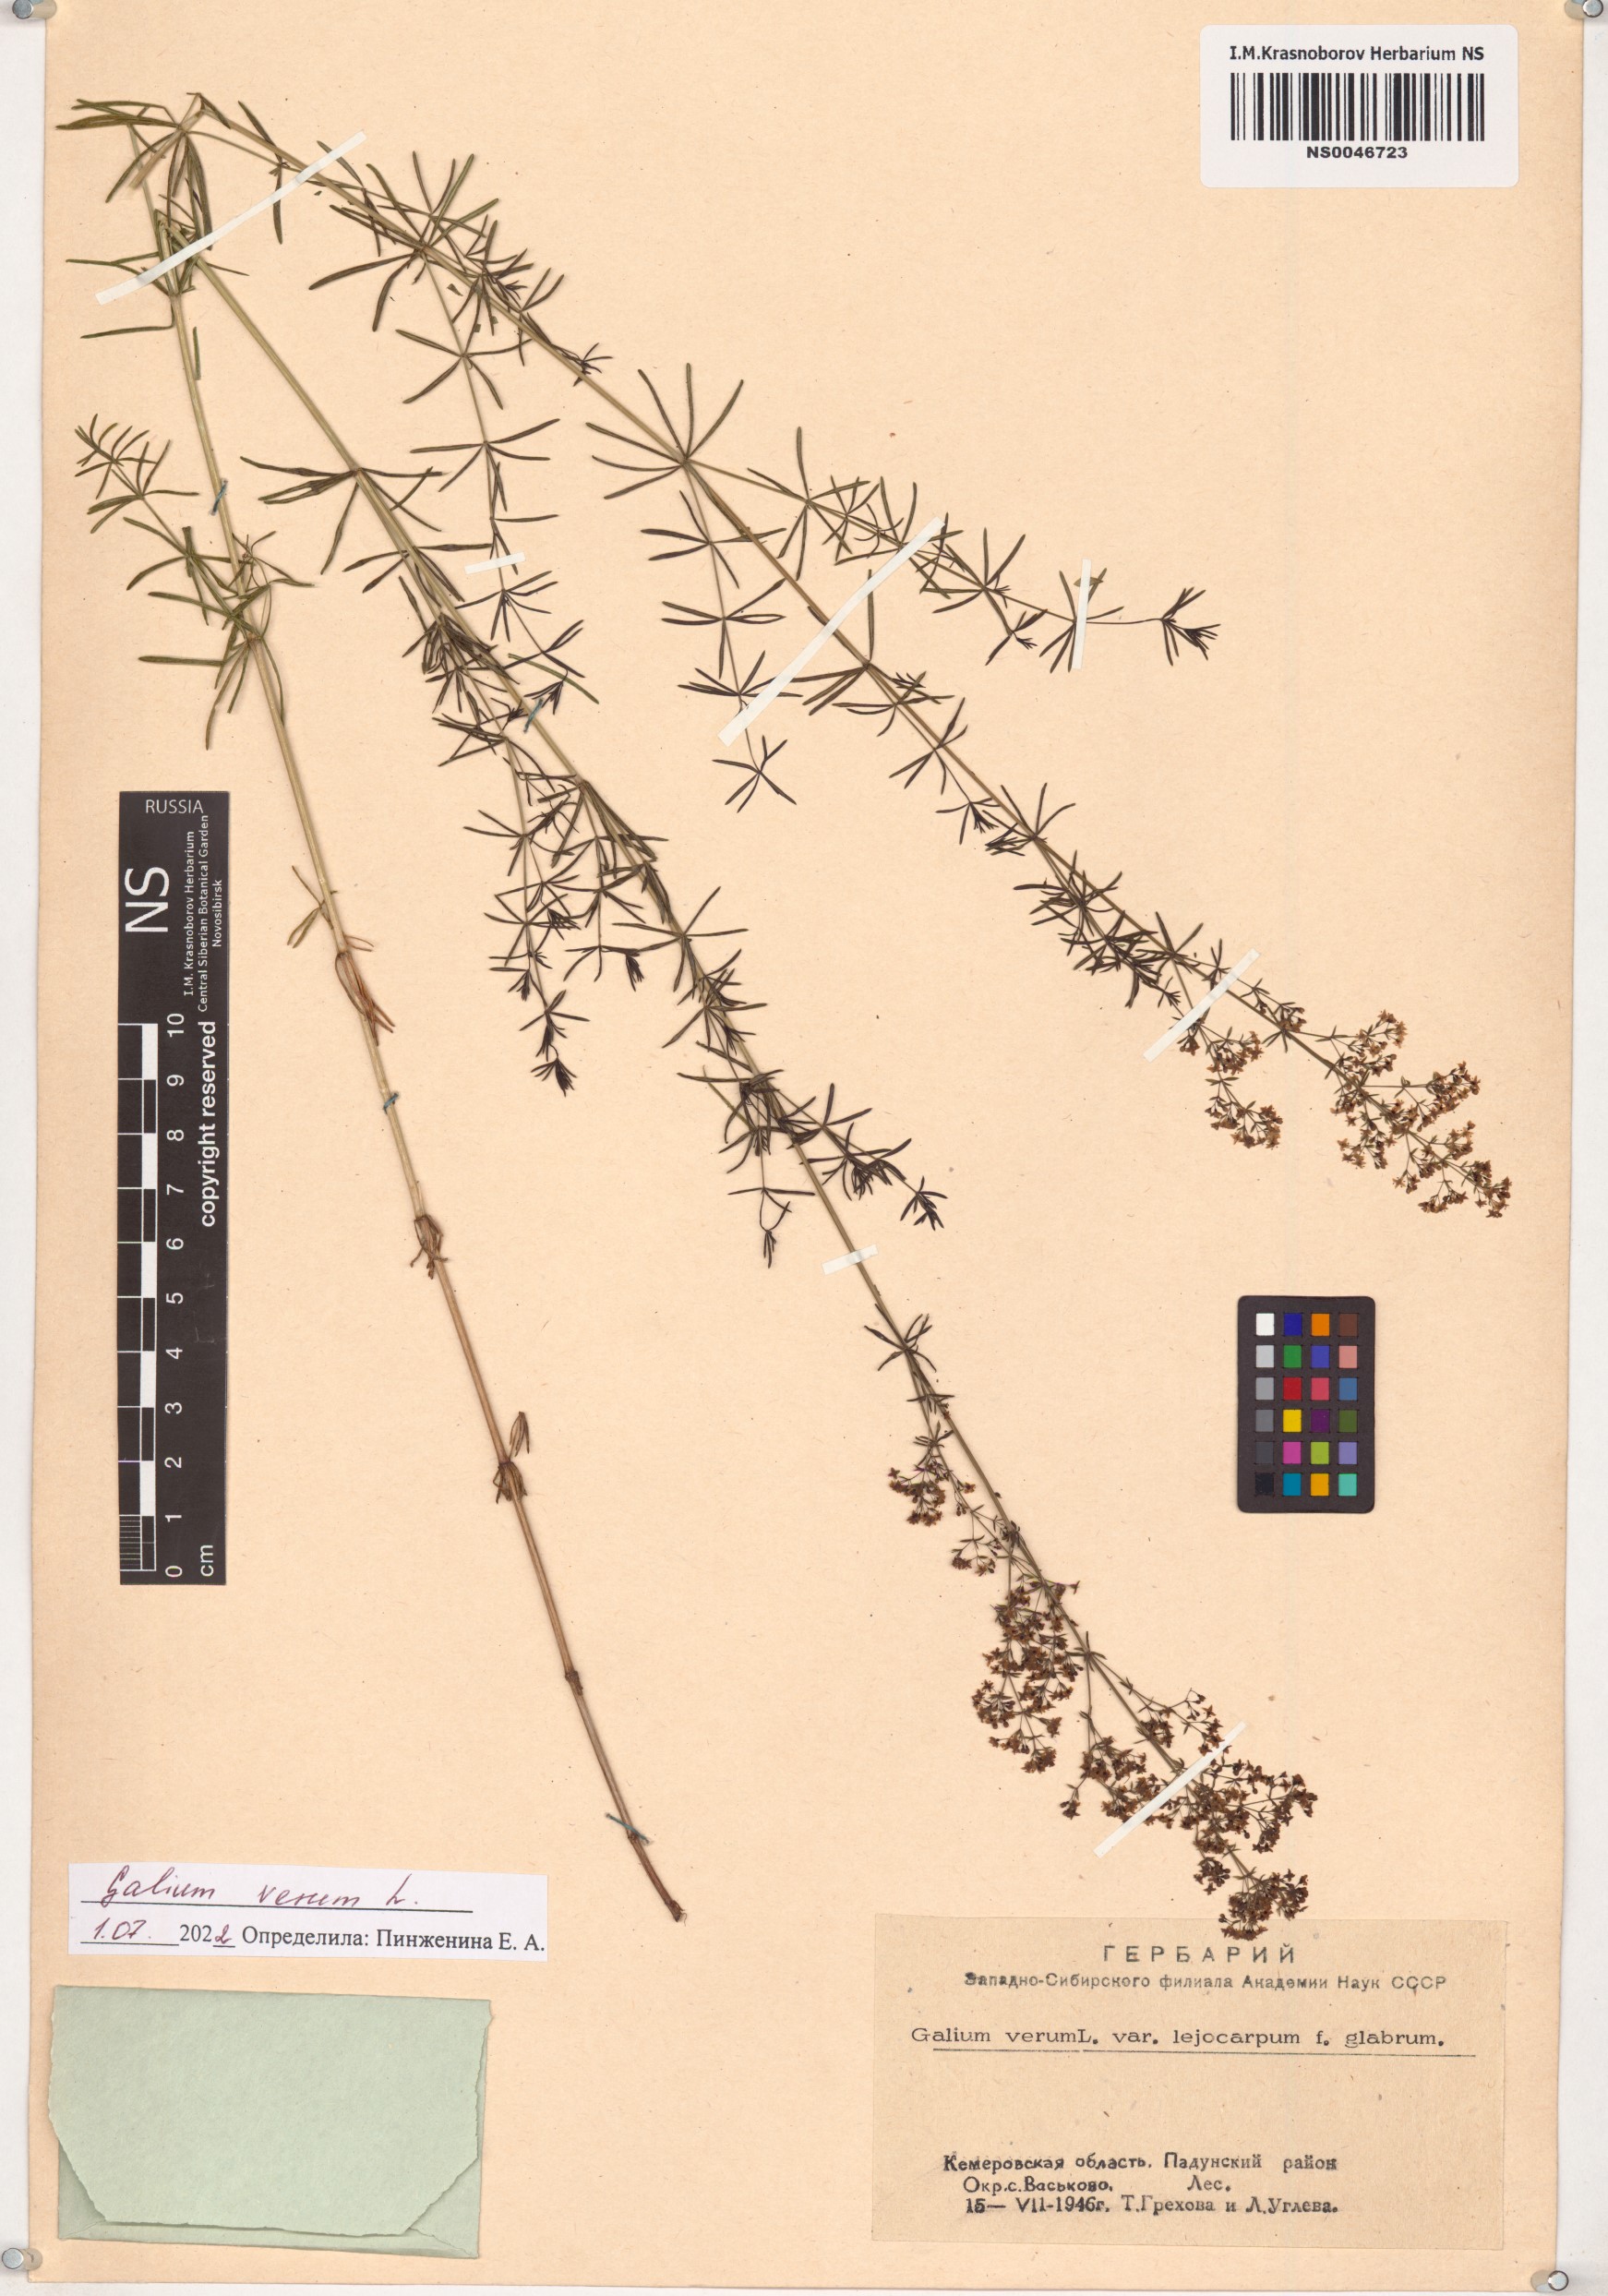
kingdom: Plantae
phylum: Tracheophyta
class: Magnoliopsida
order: Gentianales
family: Rubiaceae
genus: Galium
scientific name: Galium verum
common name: Lady's bedstraw
